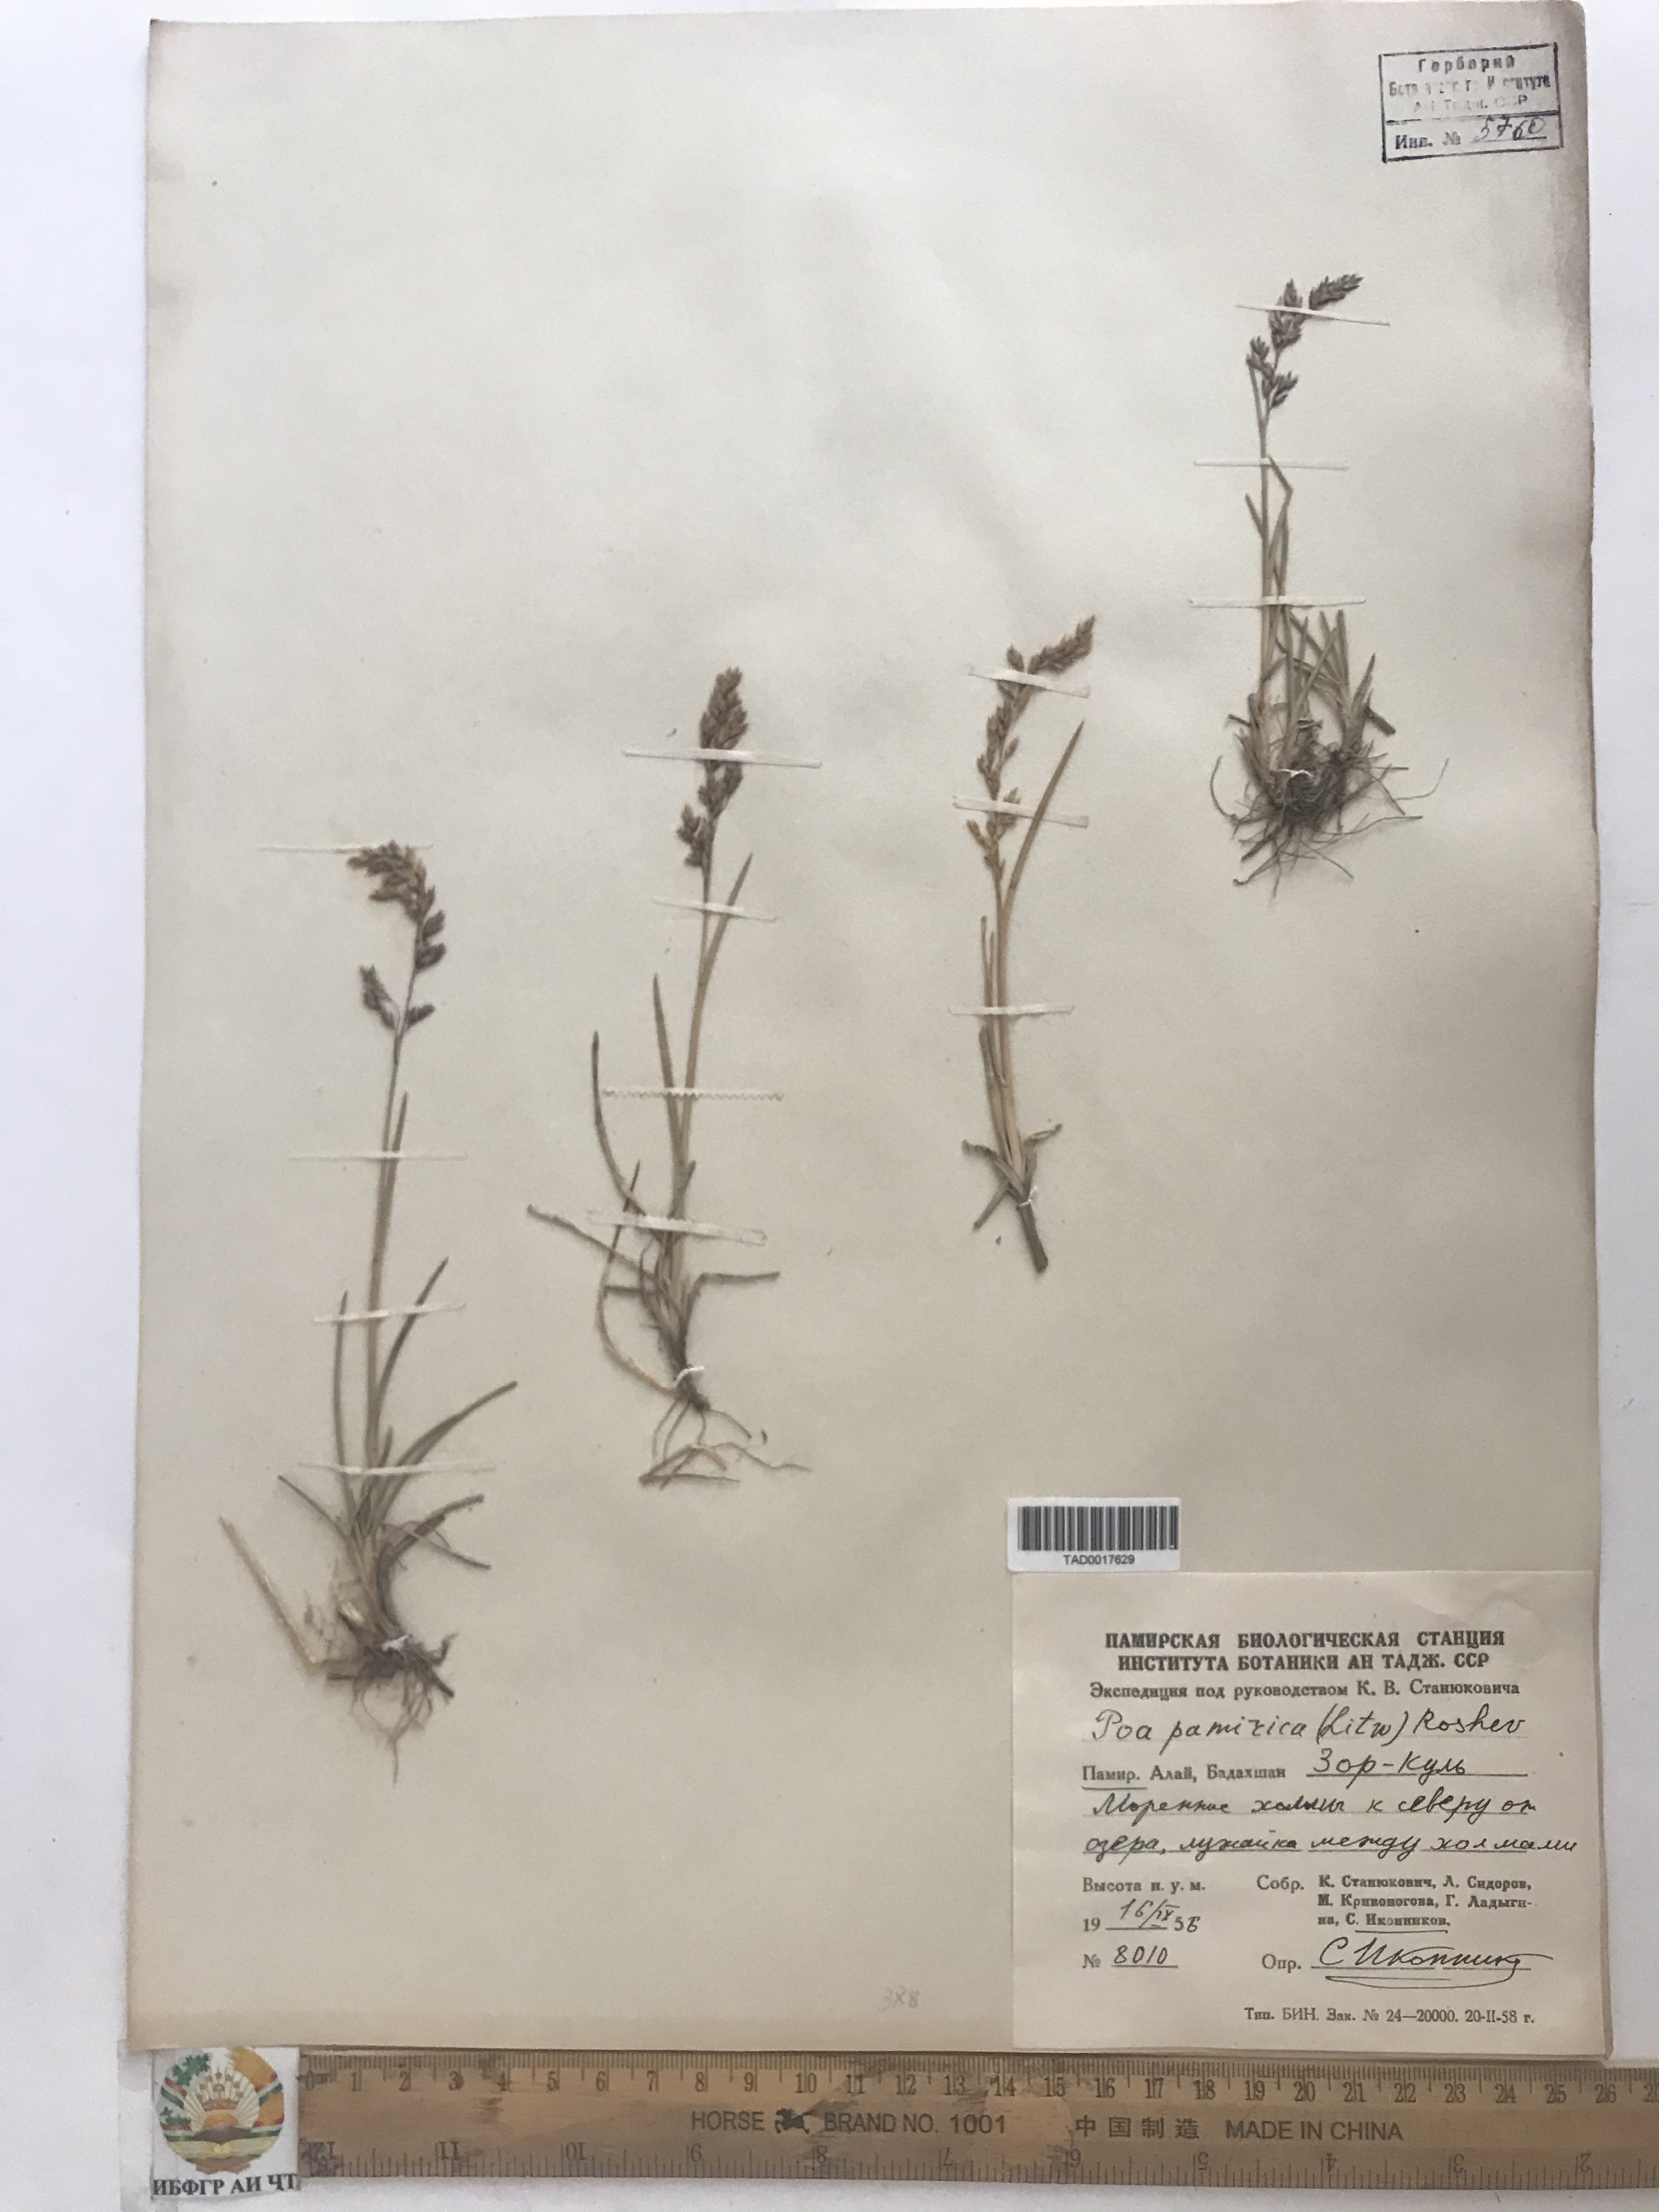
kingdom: Plantae
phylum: Tracheophyta
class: Liliopsida
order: Poales
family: Poaceae
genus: Poa
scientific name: Poa tianschanica
